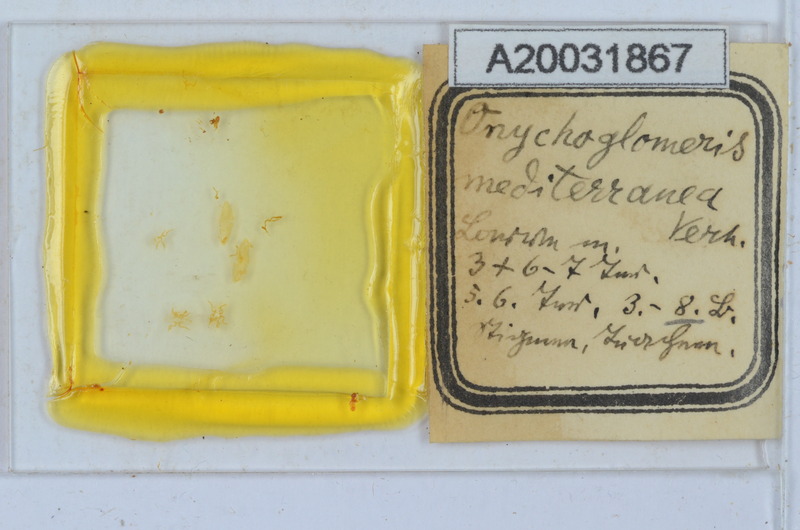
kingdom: Animalia
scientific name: Animalia
